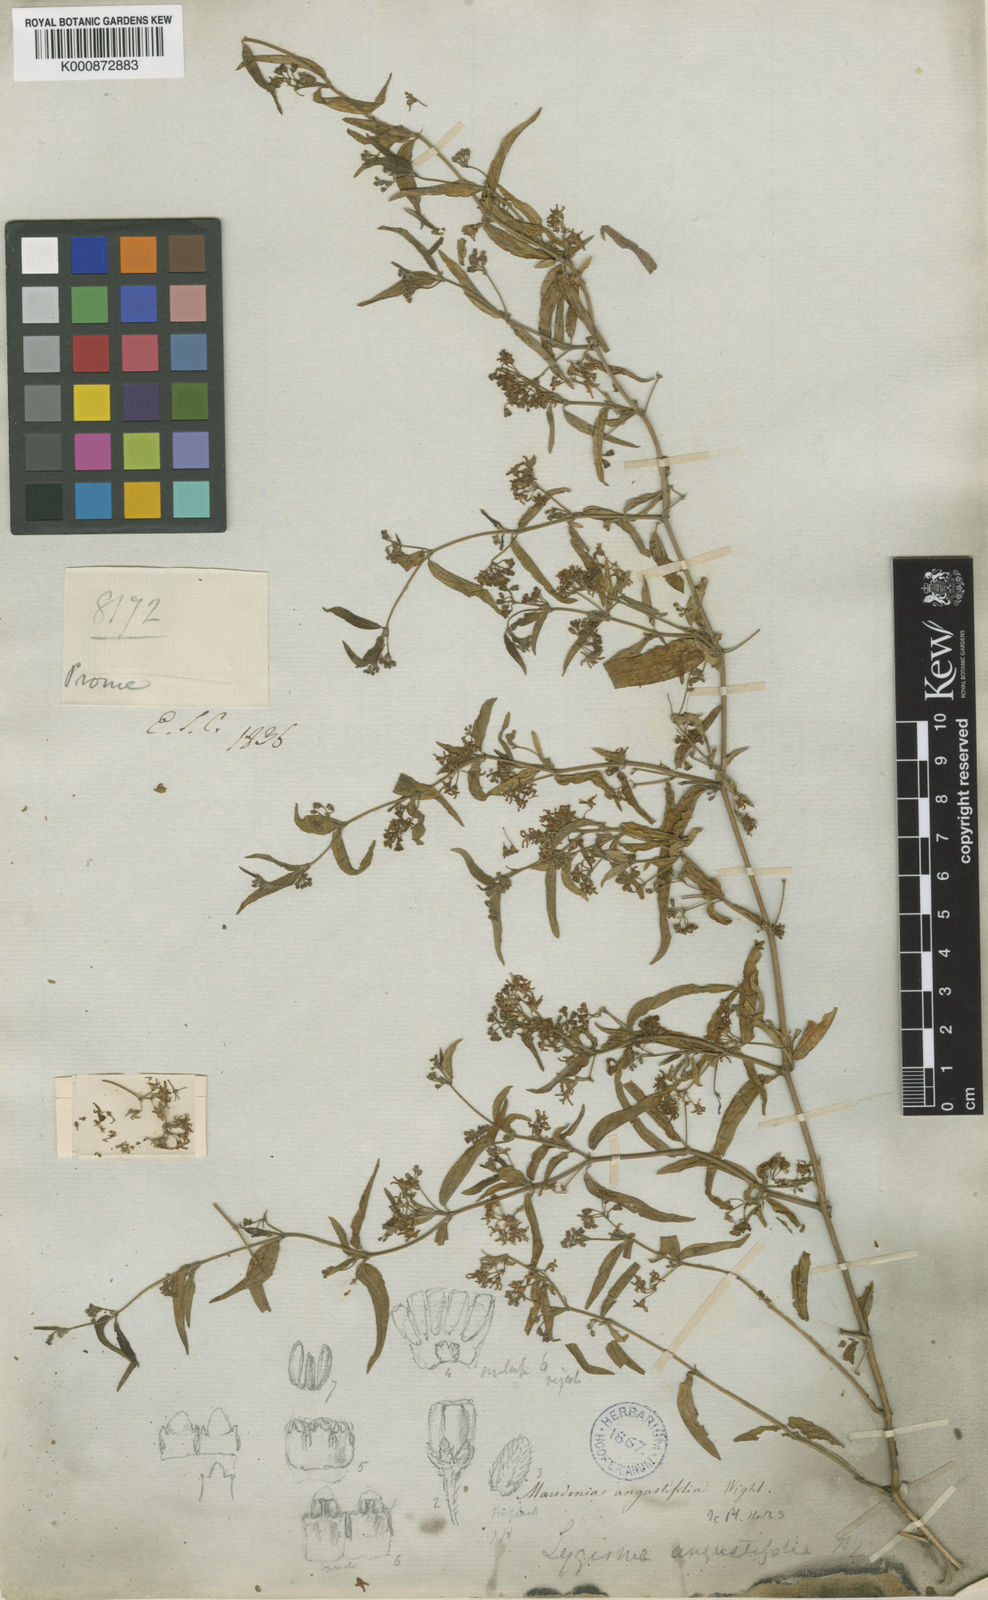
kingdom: Plantae
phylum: Tracheophyta
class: Magnoliopsida
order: Gentianales
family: Apocynaceae
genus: Lygisma
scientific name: Lygisma angustifolium
